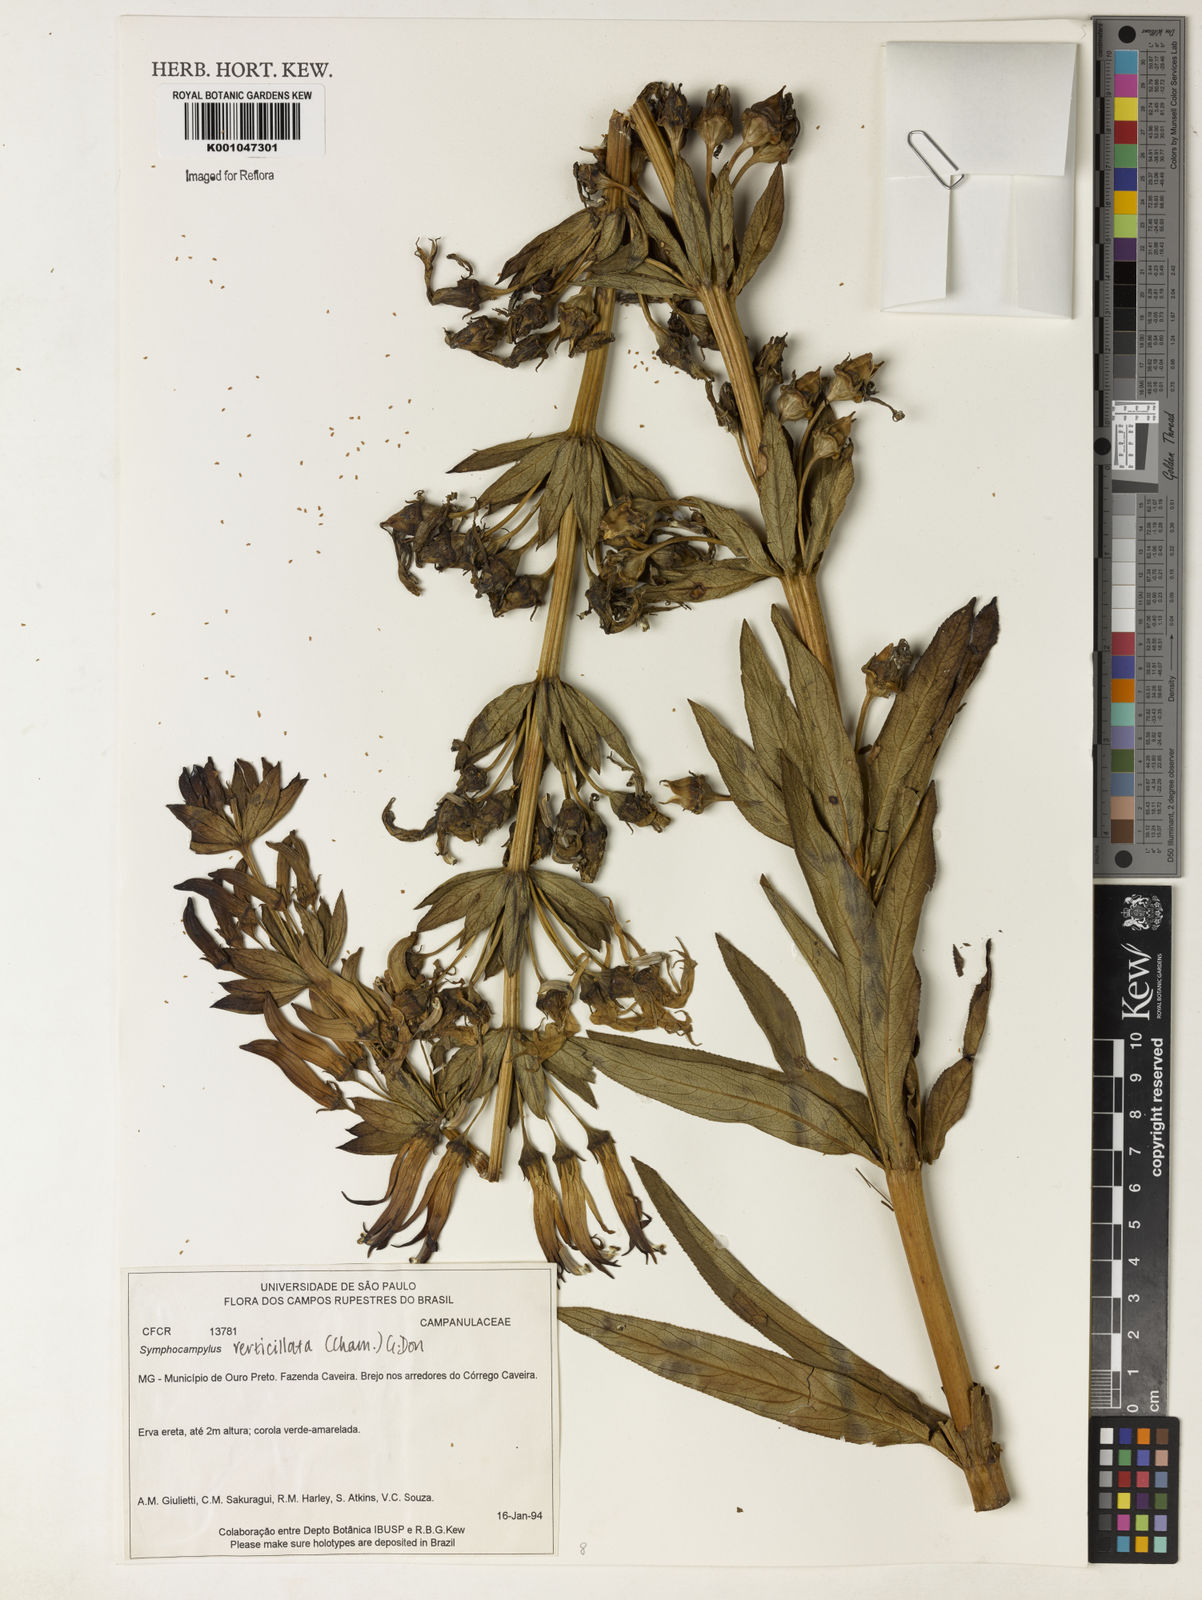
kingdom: Plantae
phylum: Tracheophyta
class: Magnoliopsida
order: Asterales
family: Campanulaceae
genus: Siphocampylus
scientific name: Siphocampylus verticillatus
